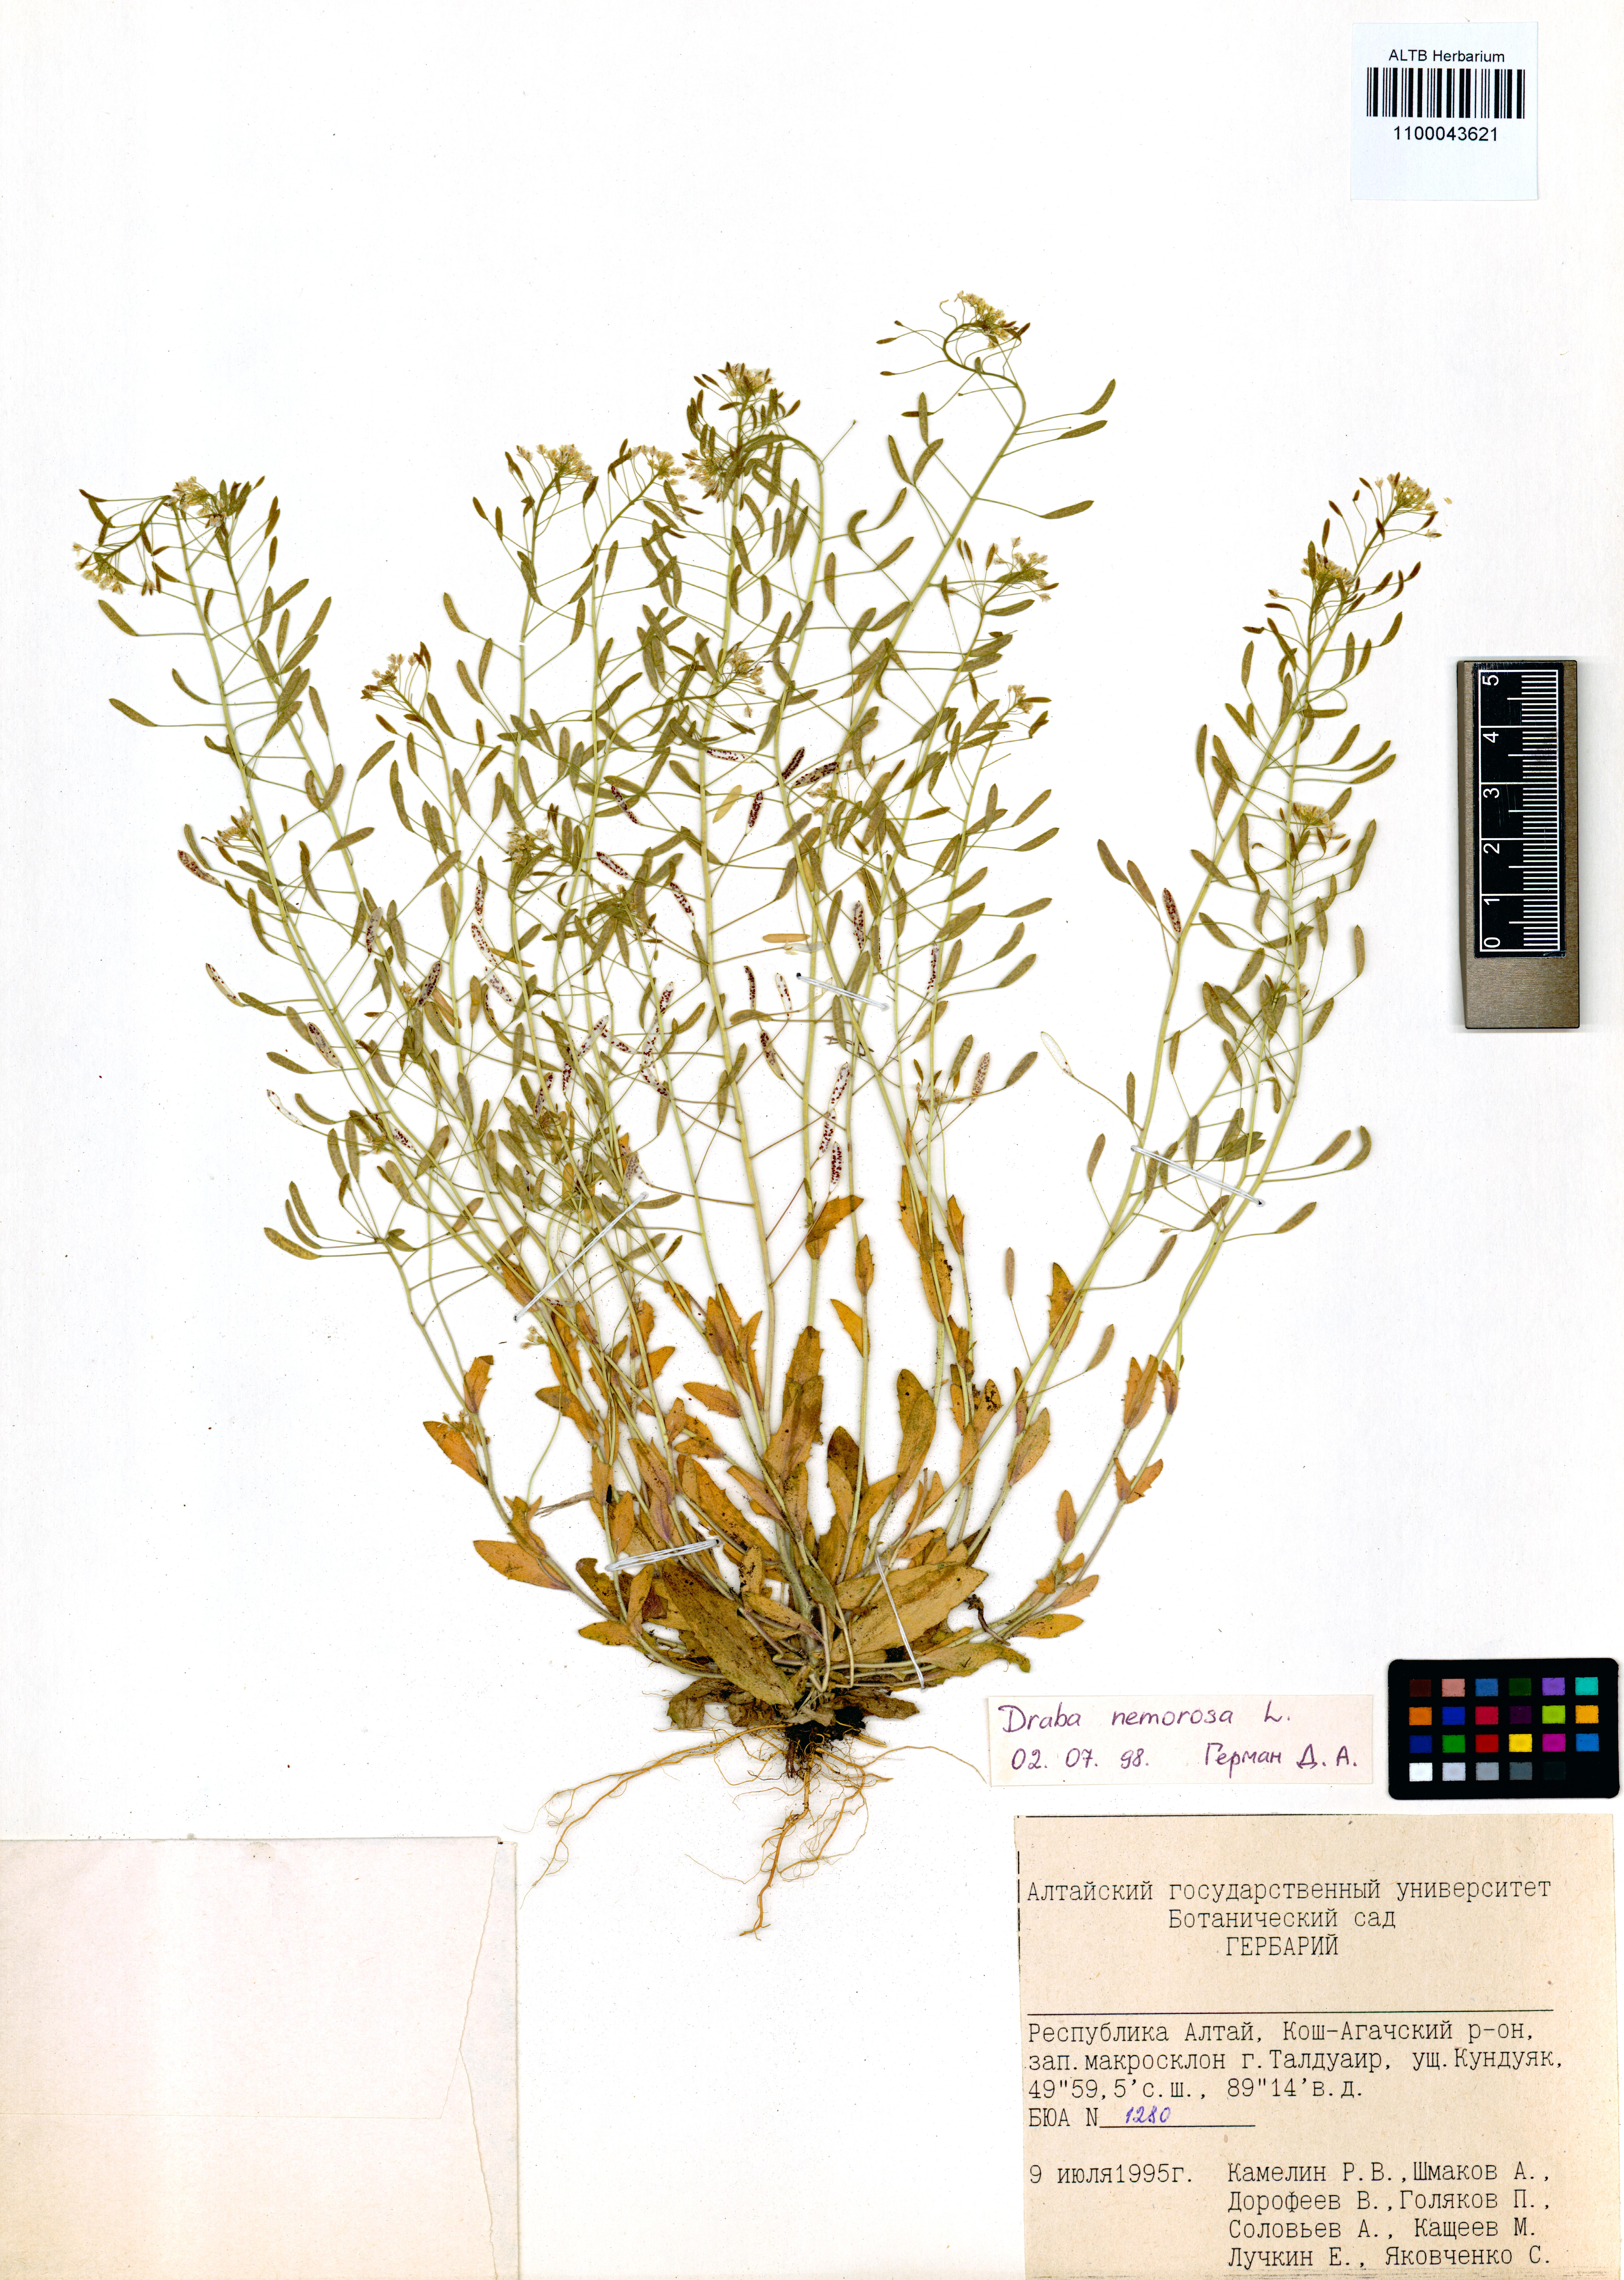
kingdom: Plantae
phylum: Tracheophyta
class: Magnoliopsida
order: Brassicales
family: Brassicaceae
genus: Draba
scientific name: Draba nemorosa
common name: Wood whitlow-grass
